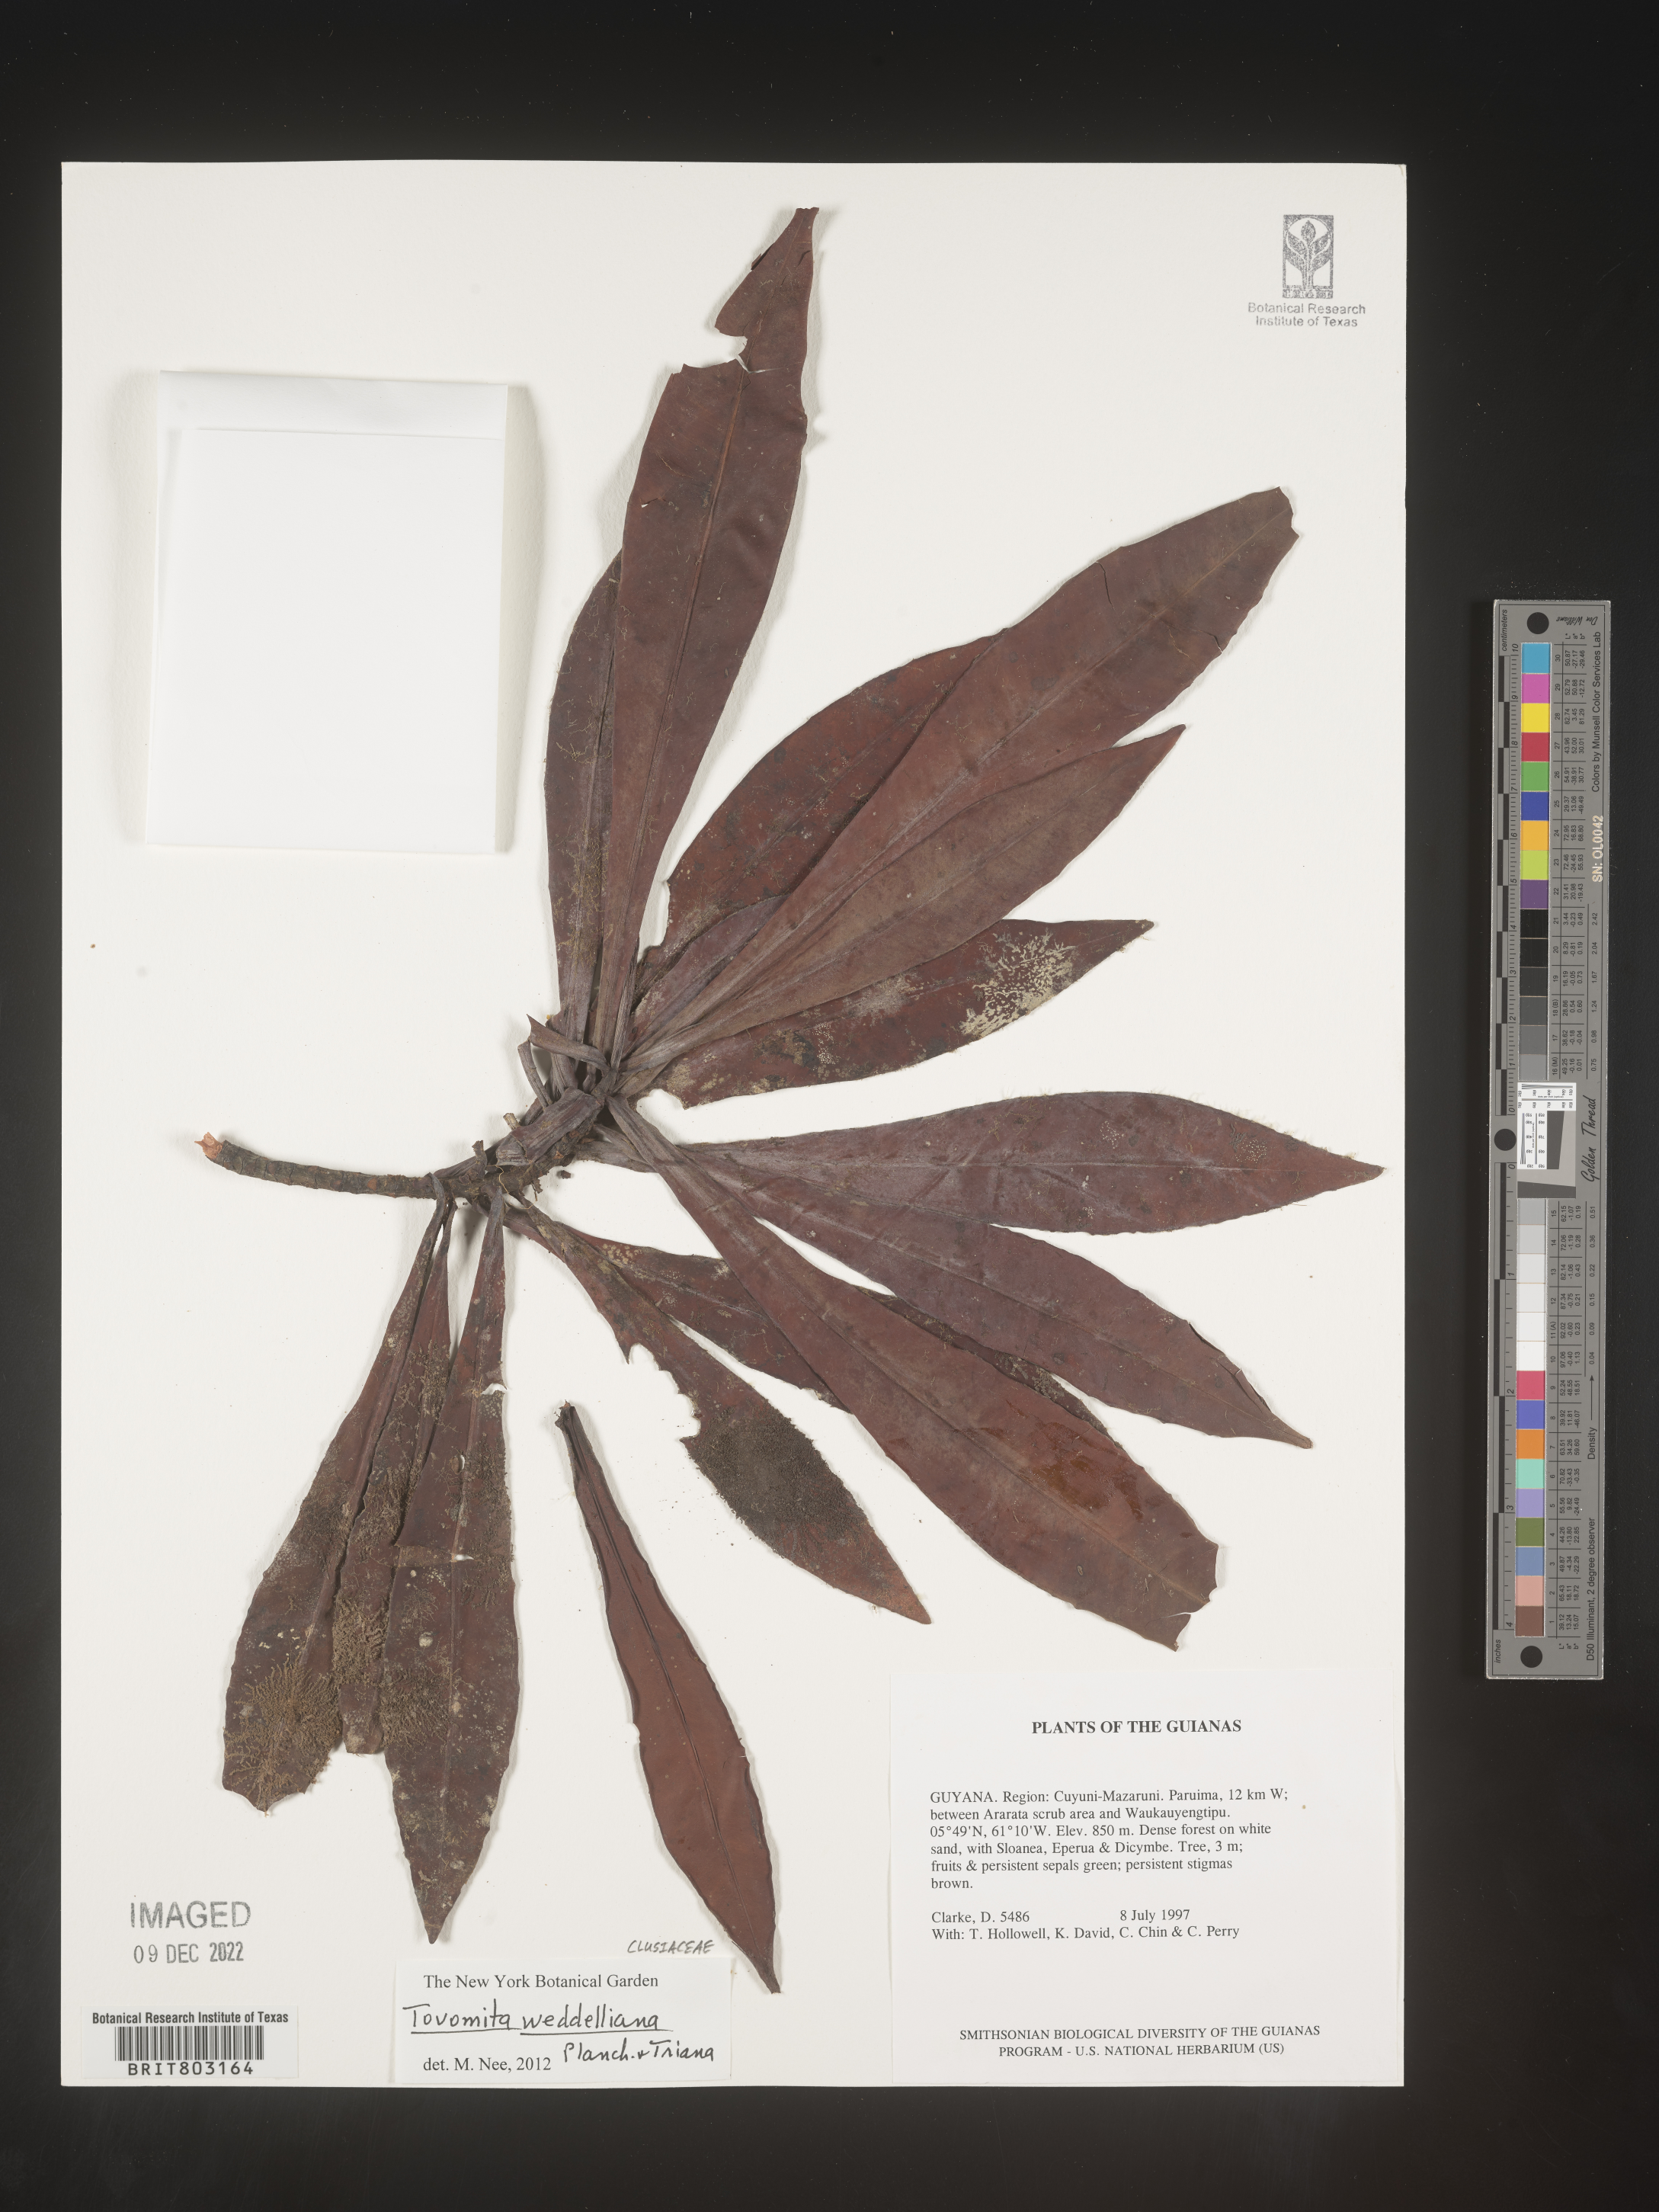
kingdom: Plantae
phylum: Tracheophyta
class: Magnoliopsida
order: Malpighiales
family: Clusiaceae
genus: Arawakia
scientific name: Arawakia weddelliana
